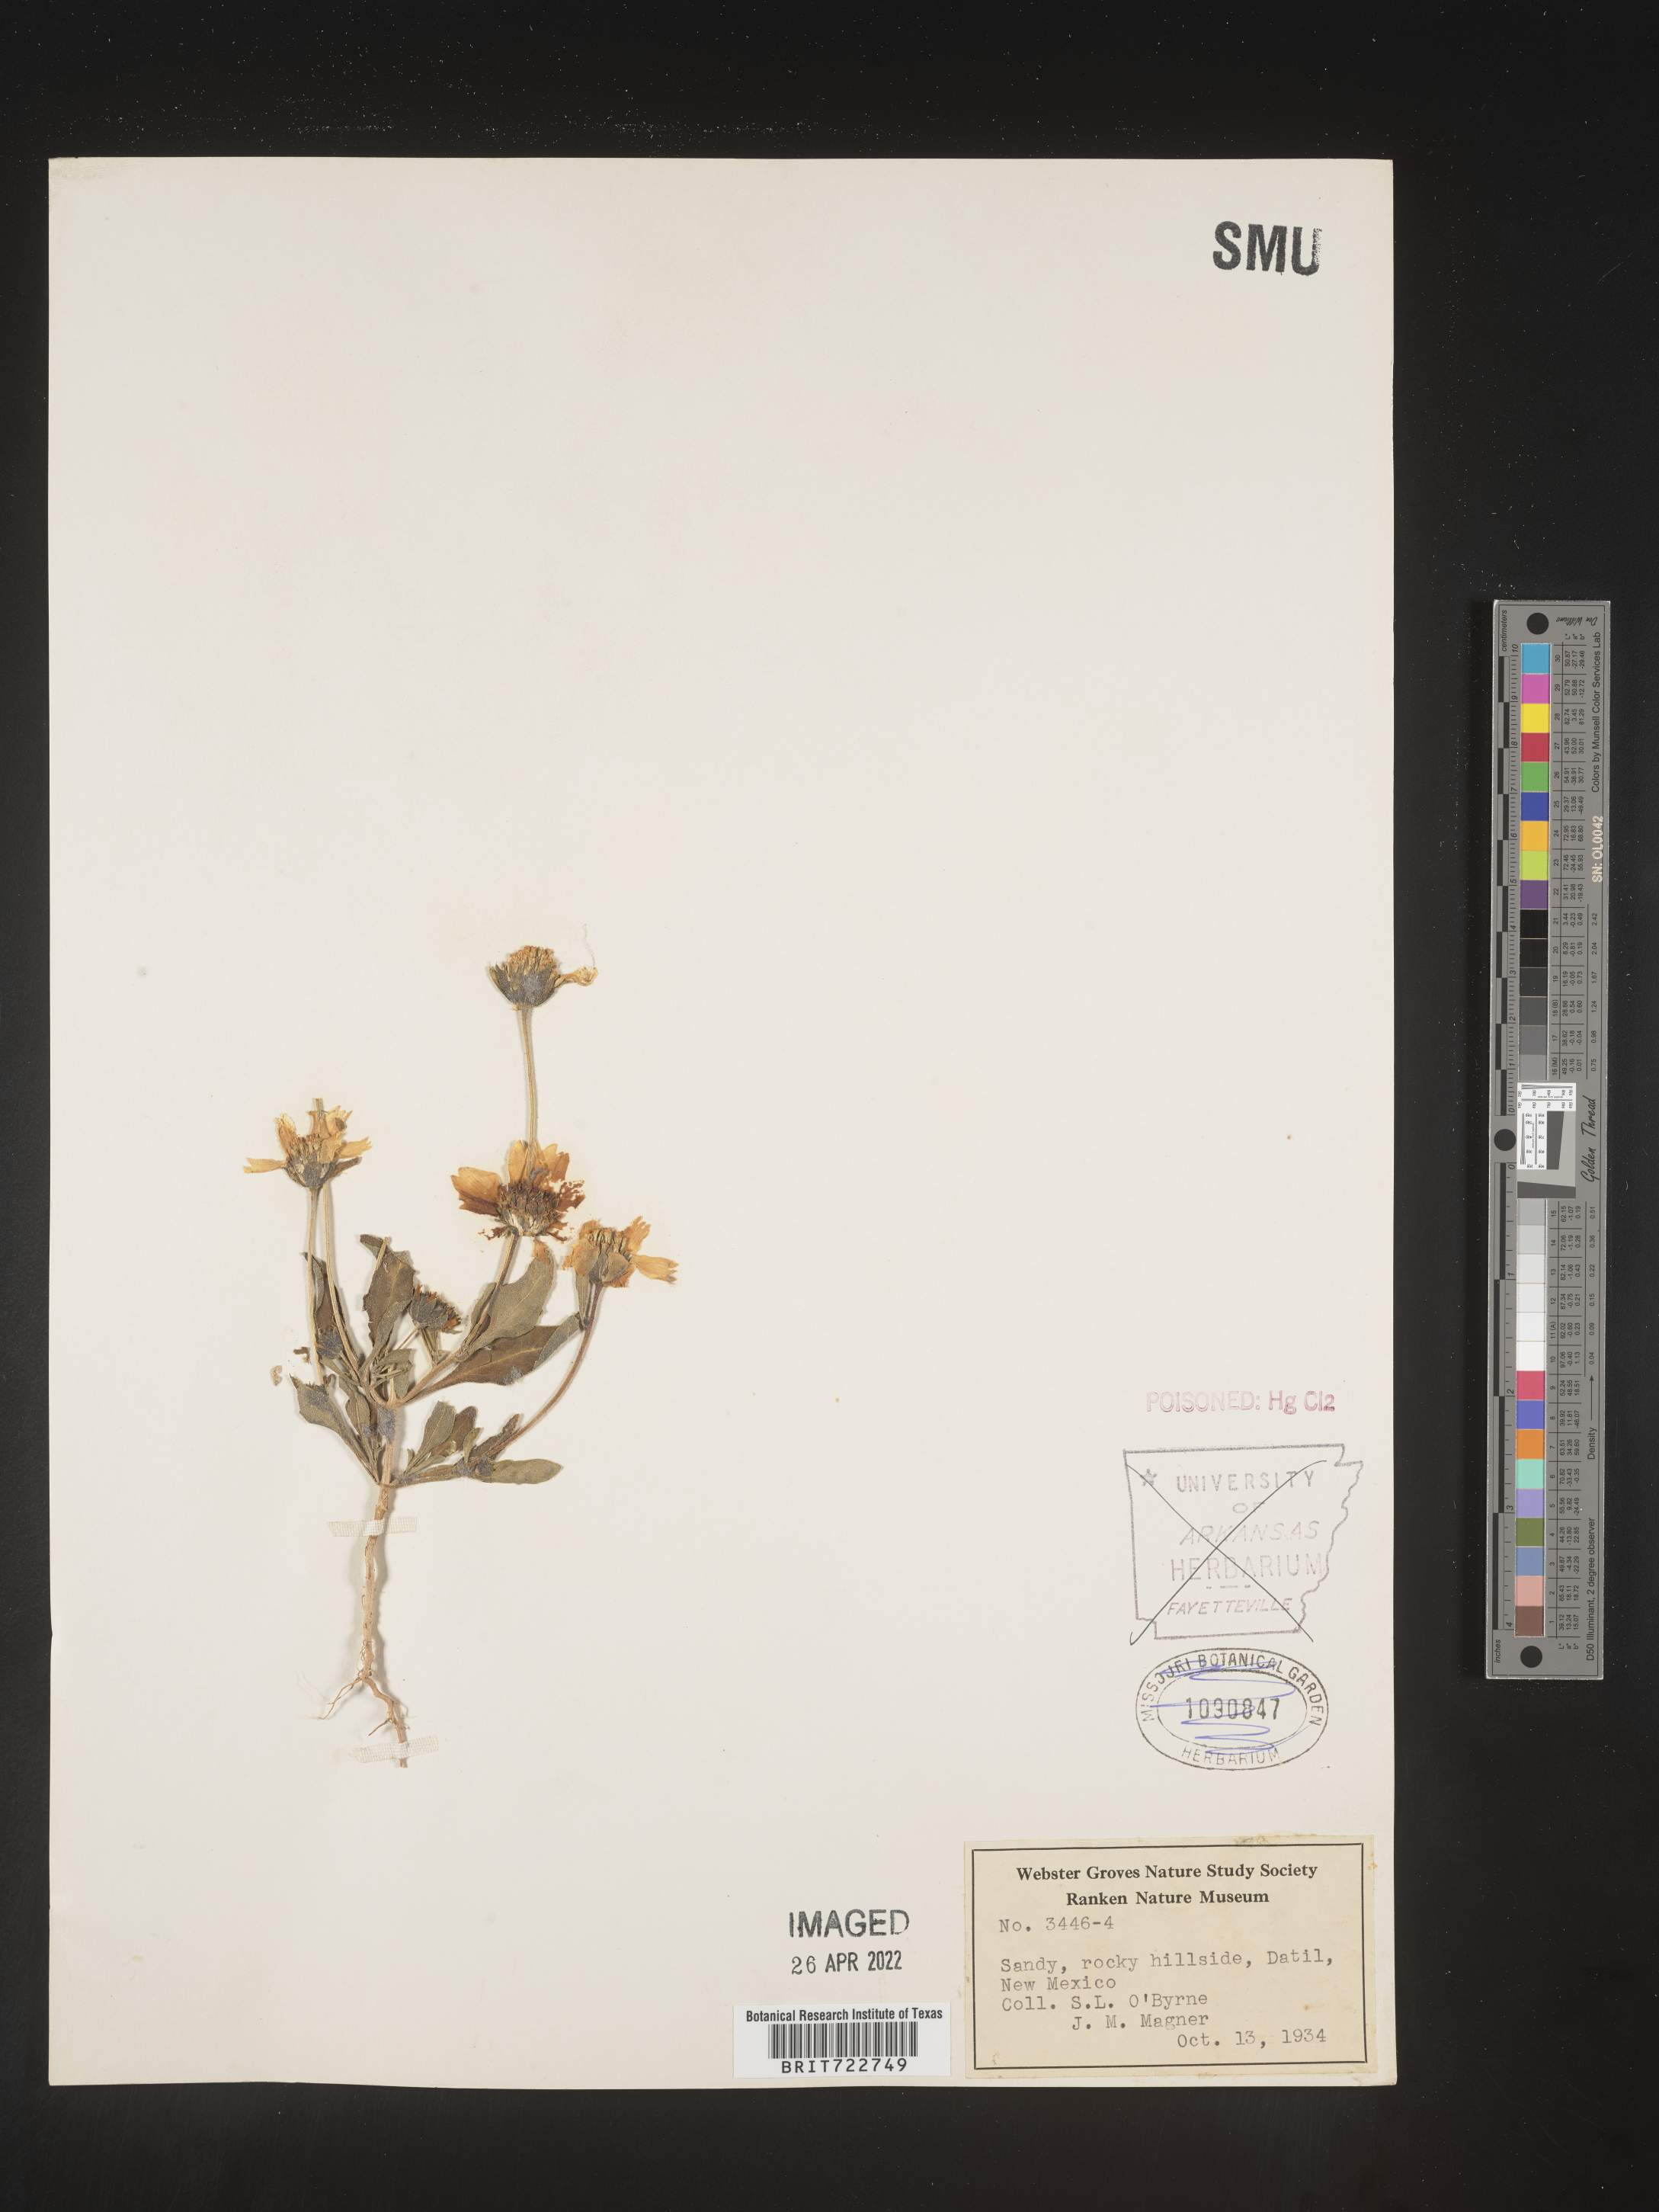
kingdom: Plantae
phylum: Tracheophyta
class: Magnoliopsida
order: Asterales
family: Asteraceae
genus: Helianthus
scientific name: Helianthus petiolaris
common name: Lesser sunflower
